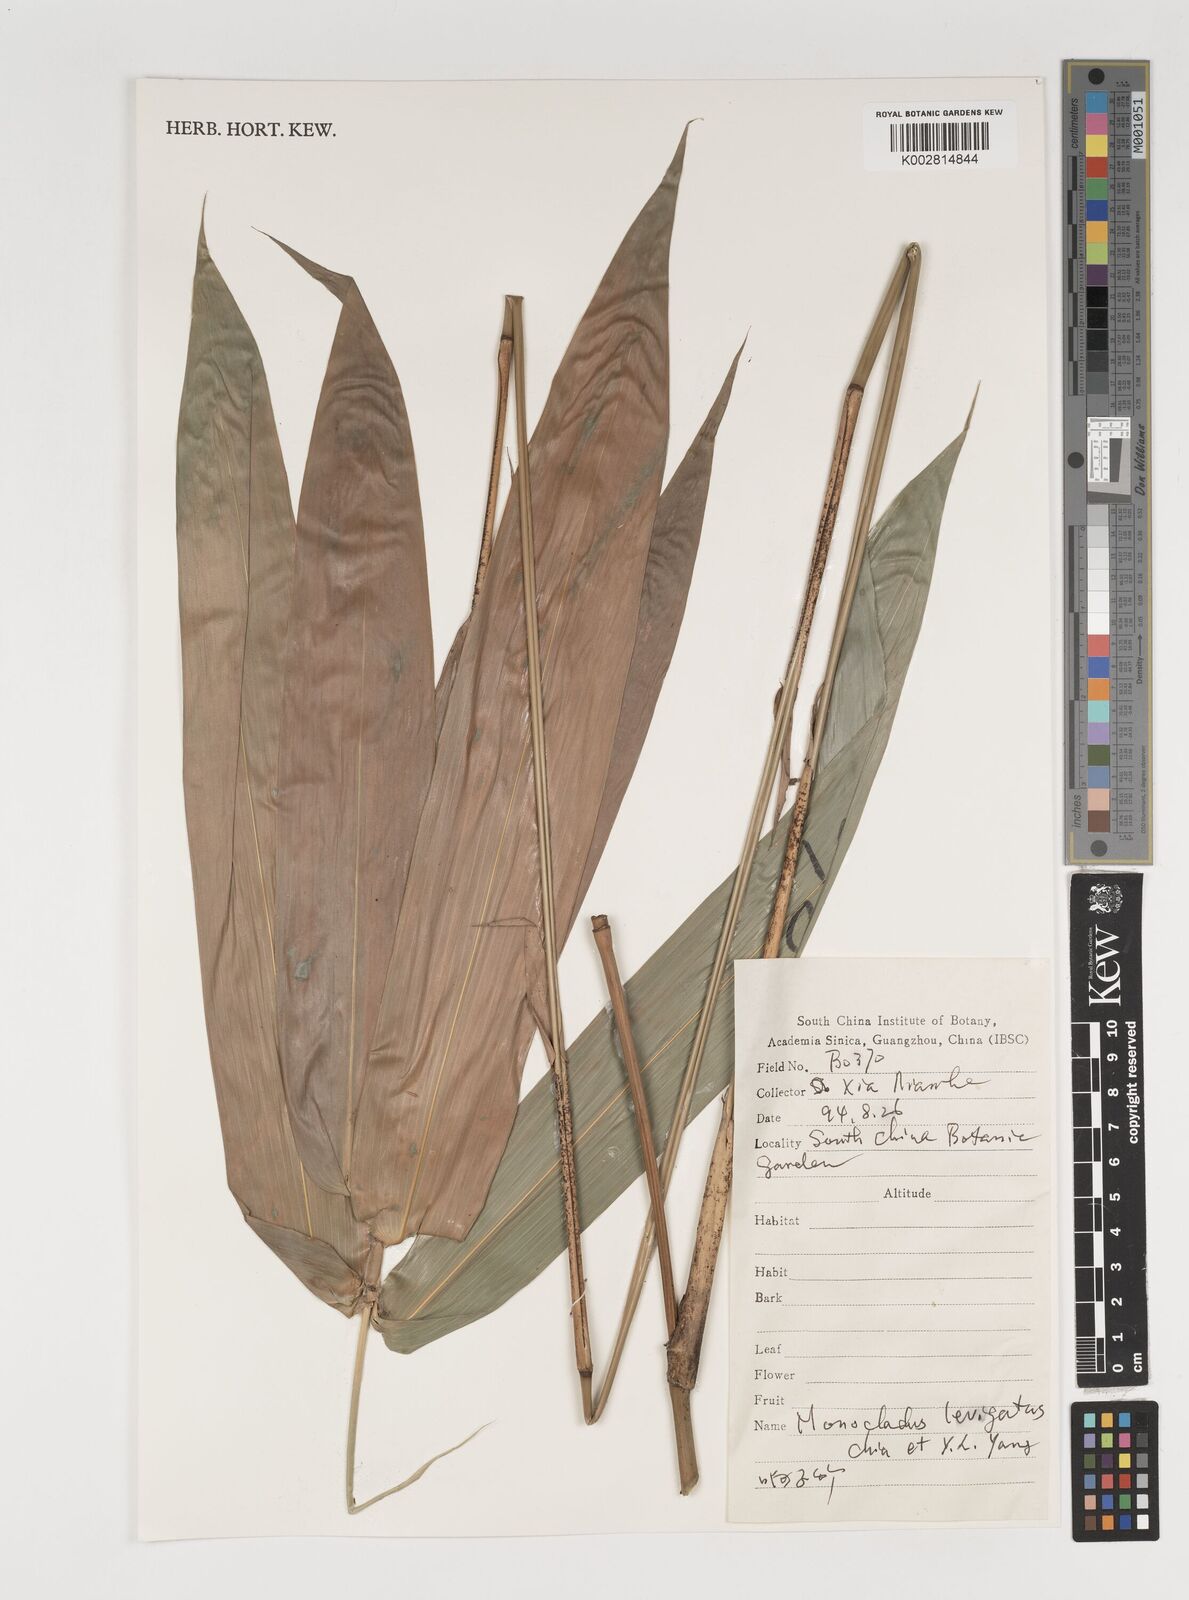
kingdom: Plantae
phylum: Tracheophyta
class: Liliopsida
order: Poales
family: Poaceae
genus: Olmeca
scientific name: Olmeca
